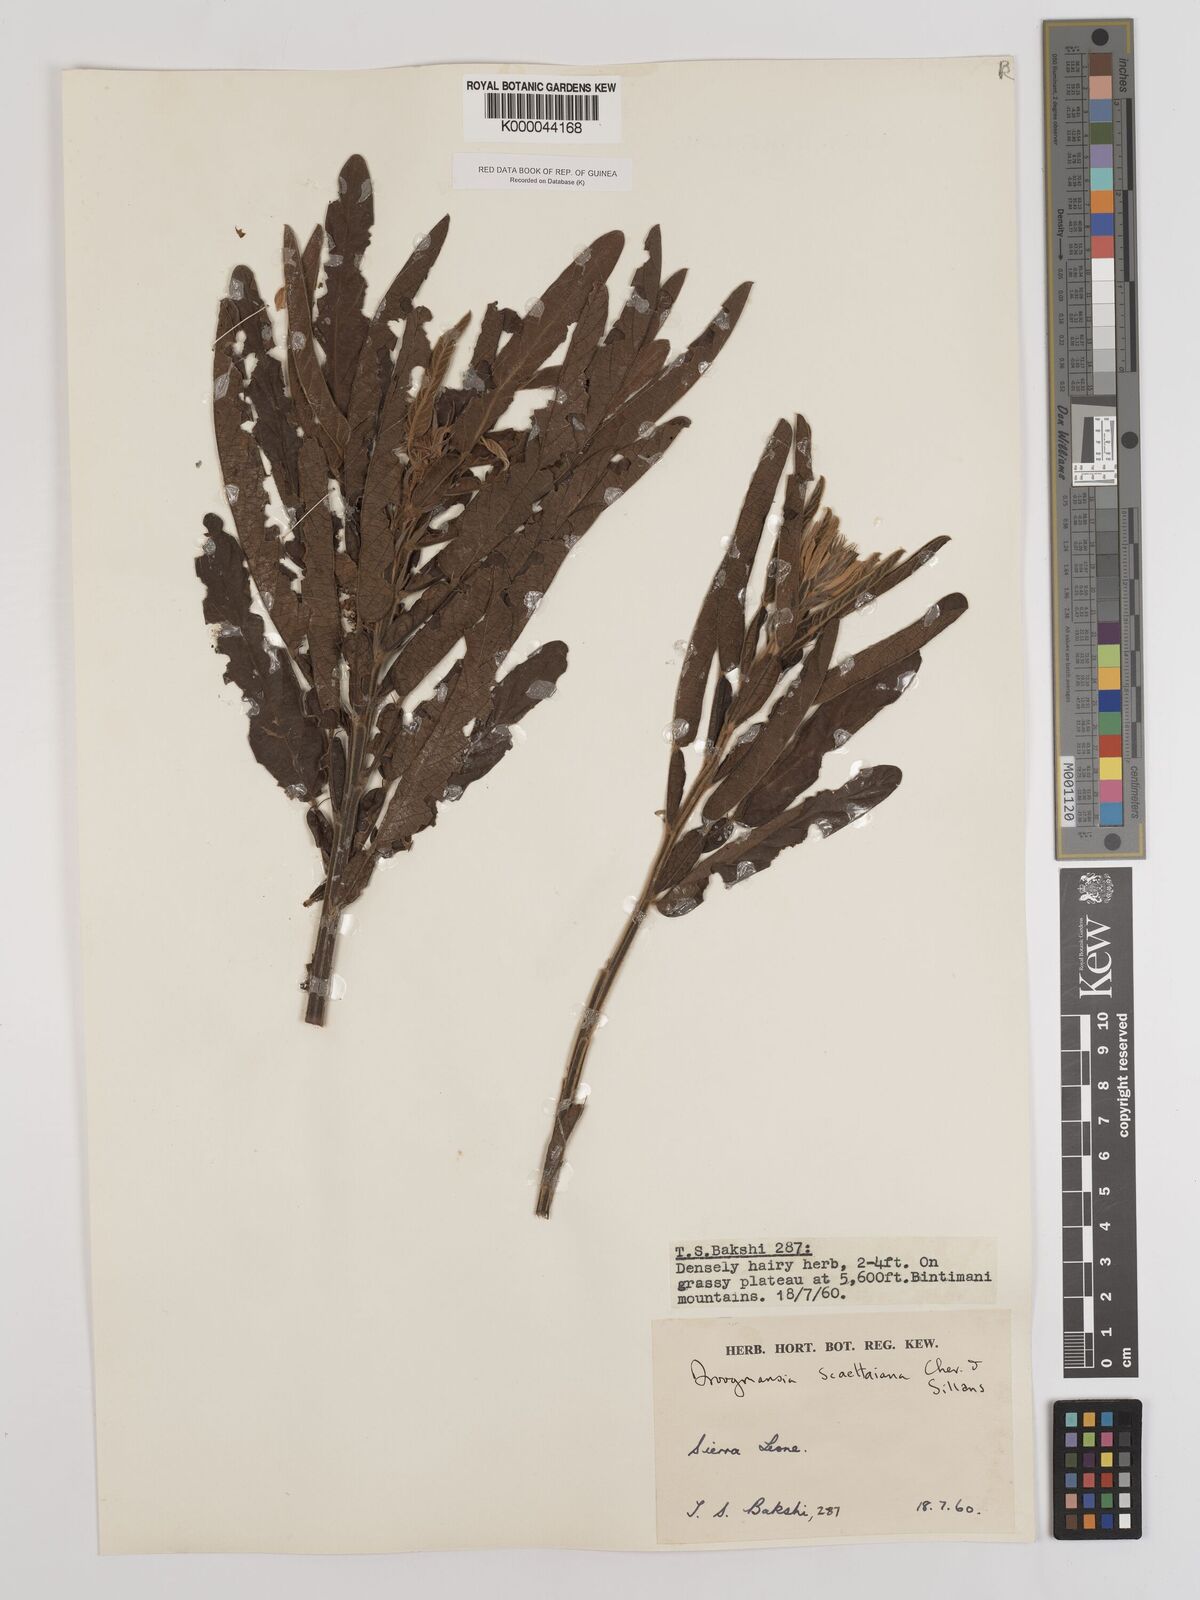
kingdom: Plantae
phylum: Tracheophyta
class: Magnoliopsida
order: Fabales
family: Fabaceae
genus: Droogmansia
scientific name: Droogmansia scaettaiana
